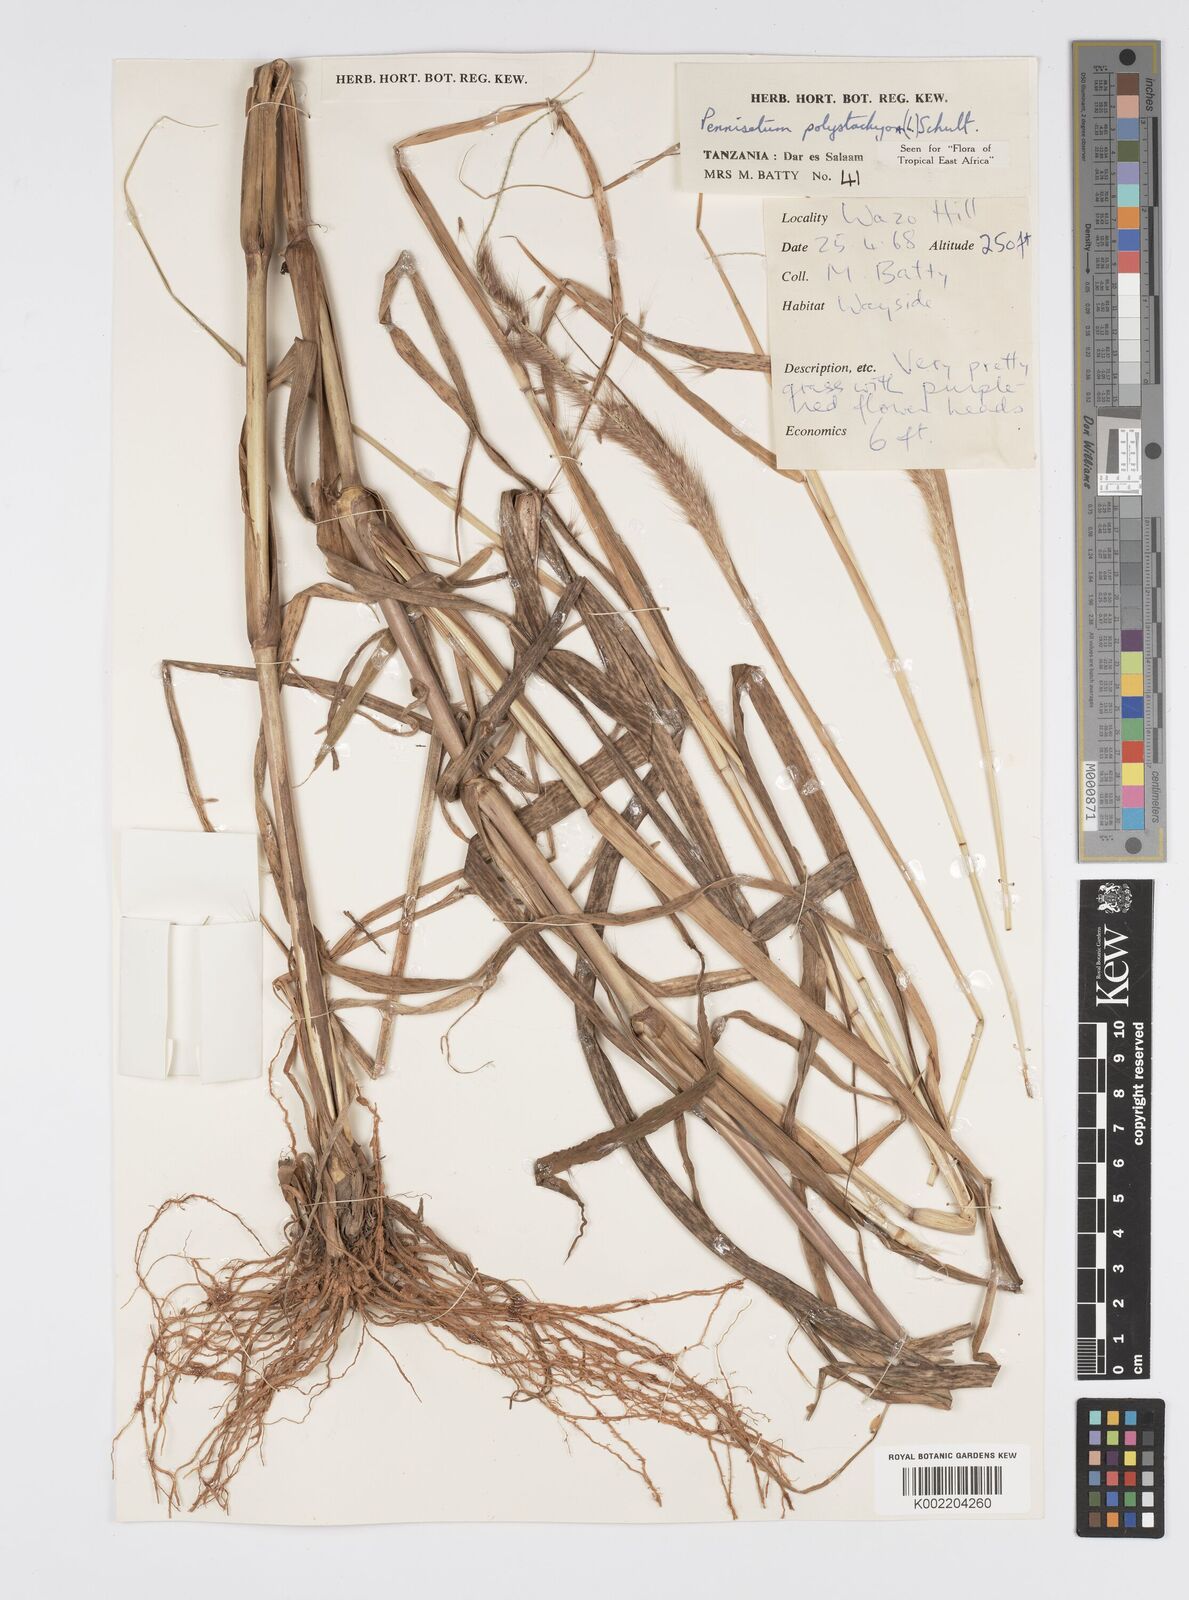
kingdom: Plantae
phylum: Tracheophyta
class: Liliopsida
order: Poales
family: Poaceae
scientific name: Poaceae
